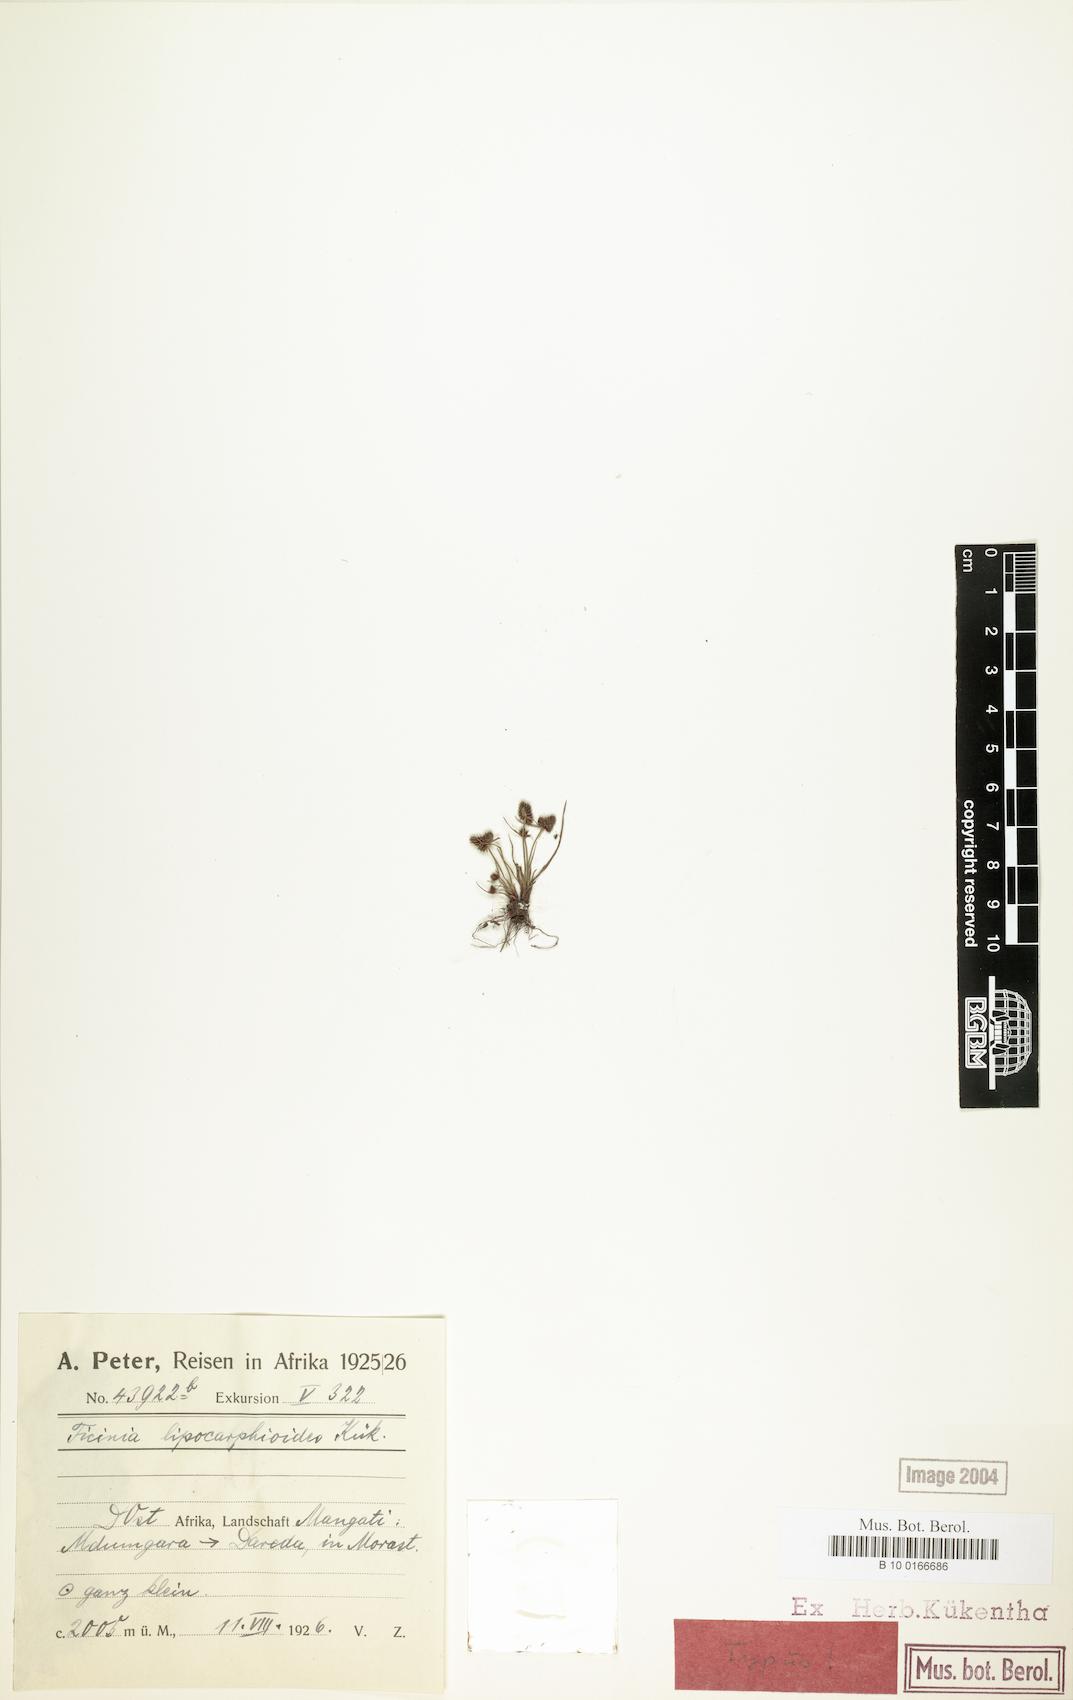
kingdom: Plantae
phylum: Tracheophyta
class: Liliopsida
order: Poales
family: Cyperaceae
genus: Cyperus
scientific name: Cyperus lipocarphioides
